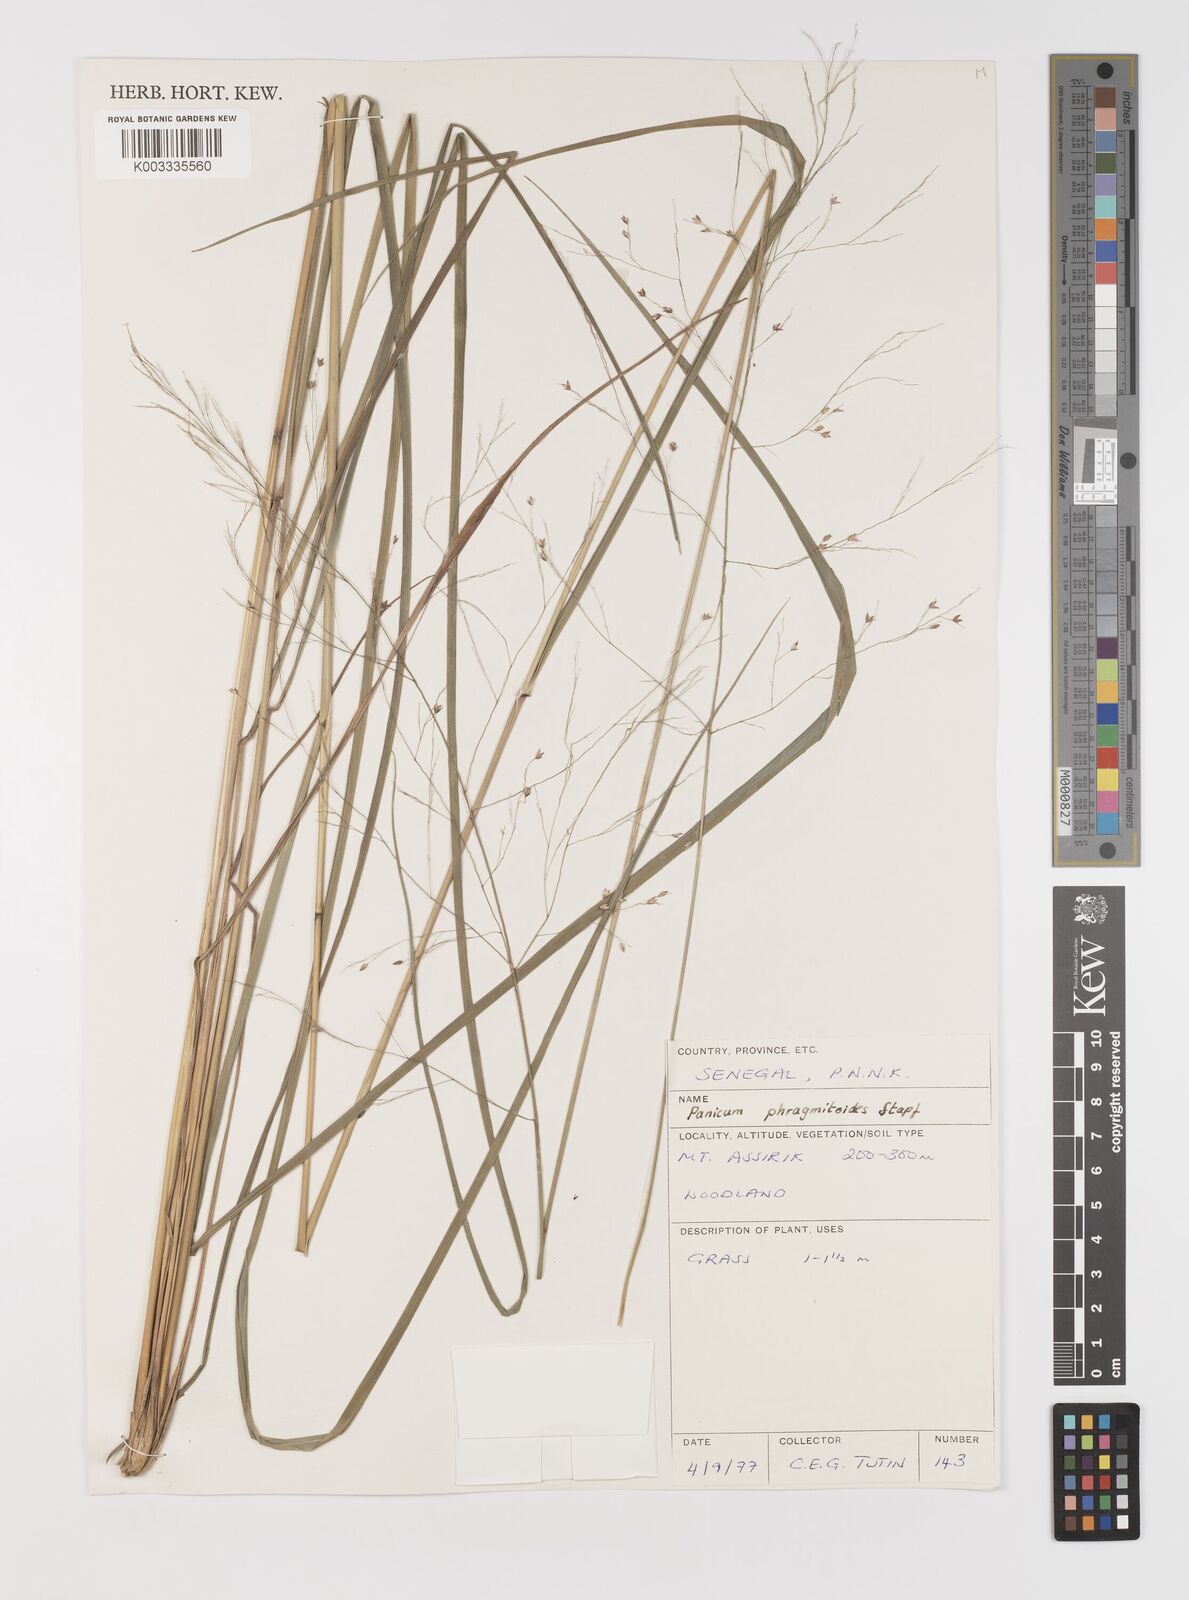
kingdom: Plantae
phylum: Tracheophyta
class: Liliopsida
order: Poales
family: Poaceae
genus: Panicum
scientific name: Panicum phragmitoides
